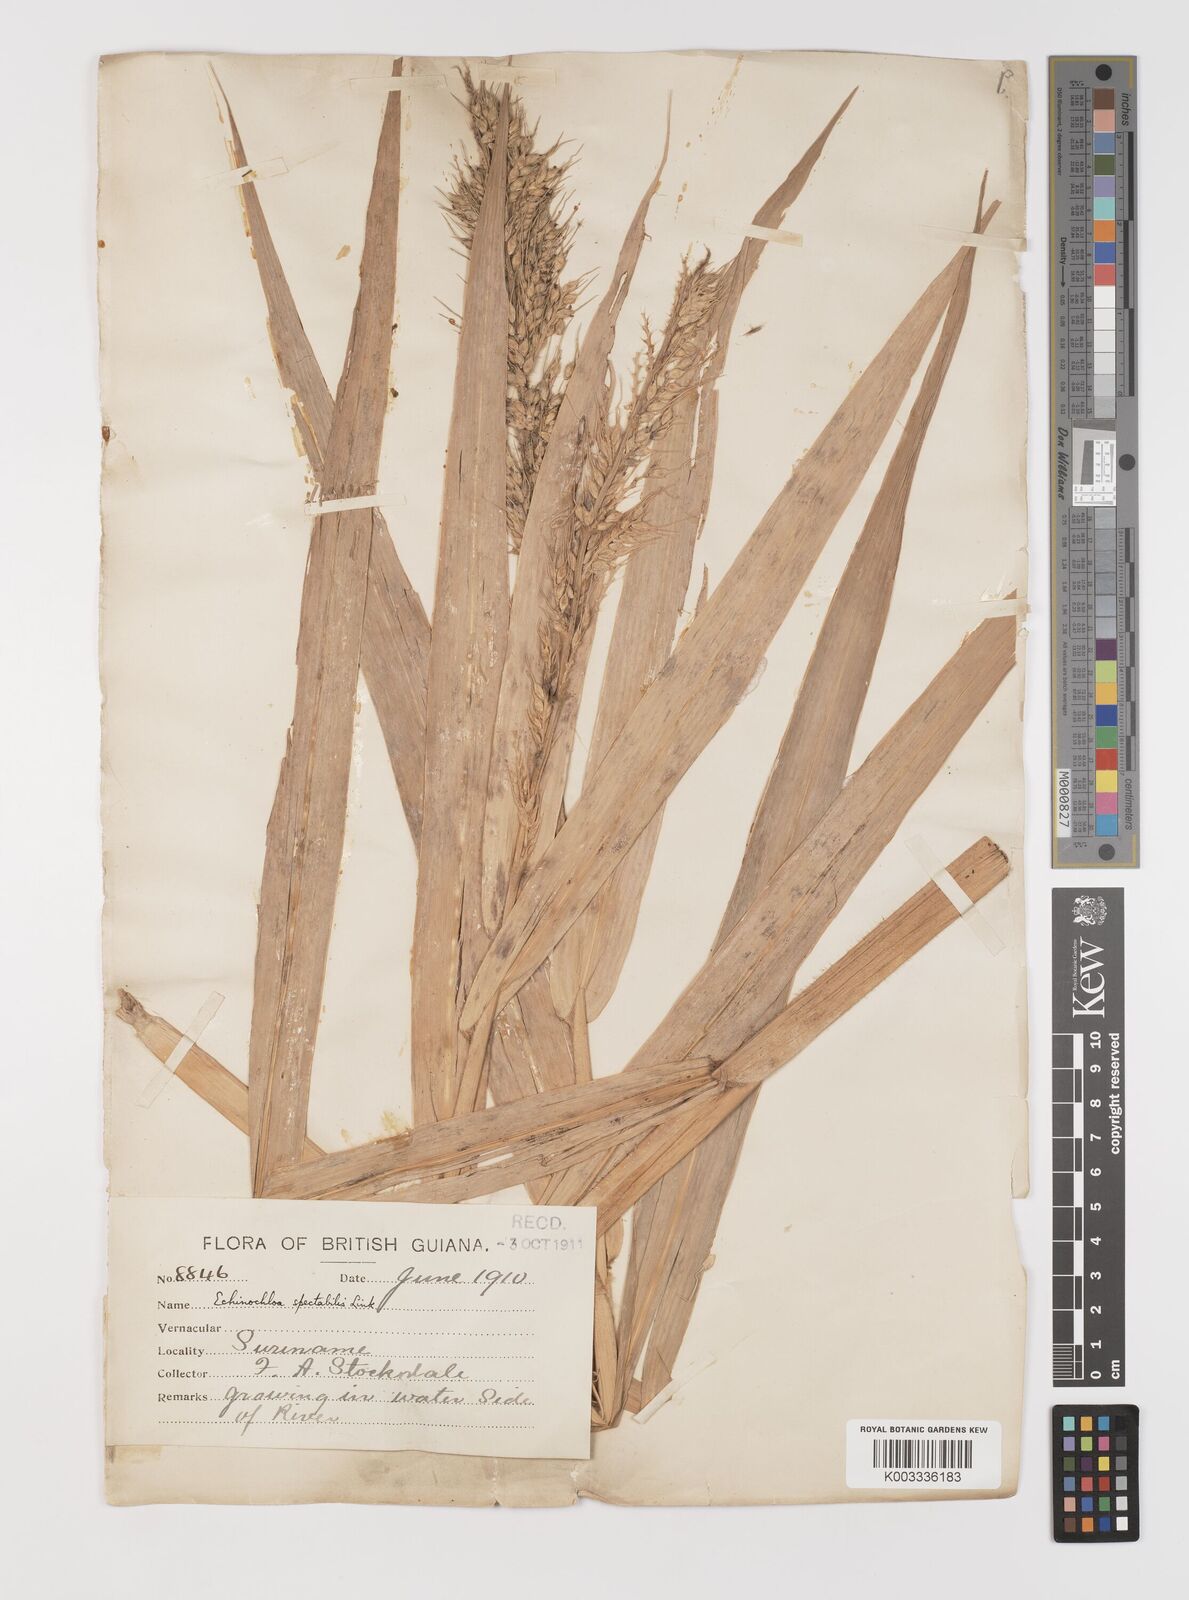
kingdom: Plantae
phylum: Tracheophyta
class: Liliopsida
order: Poales
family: Poaceae
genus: Pseudechinolaena
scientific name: Pseudechinolaena polystachya
